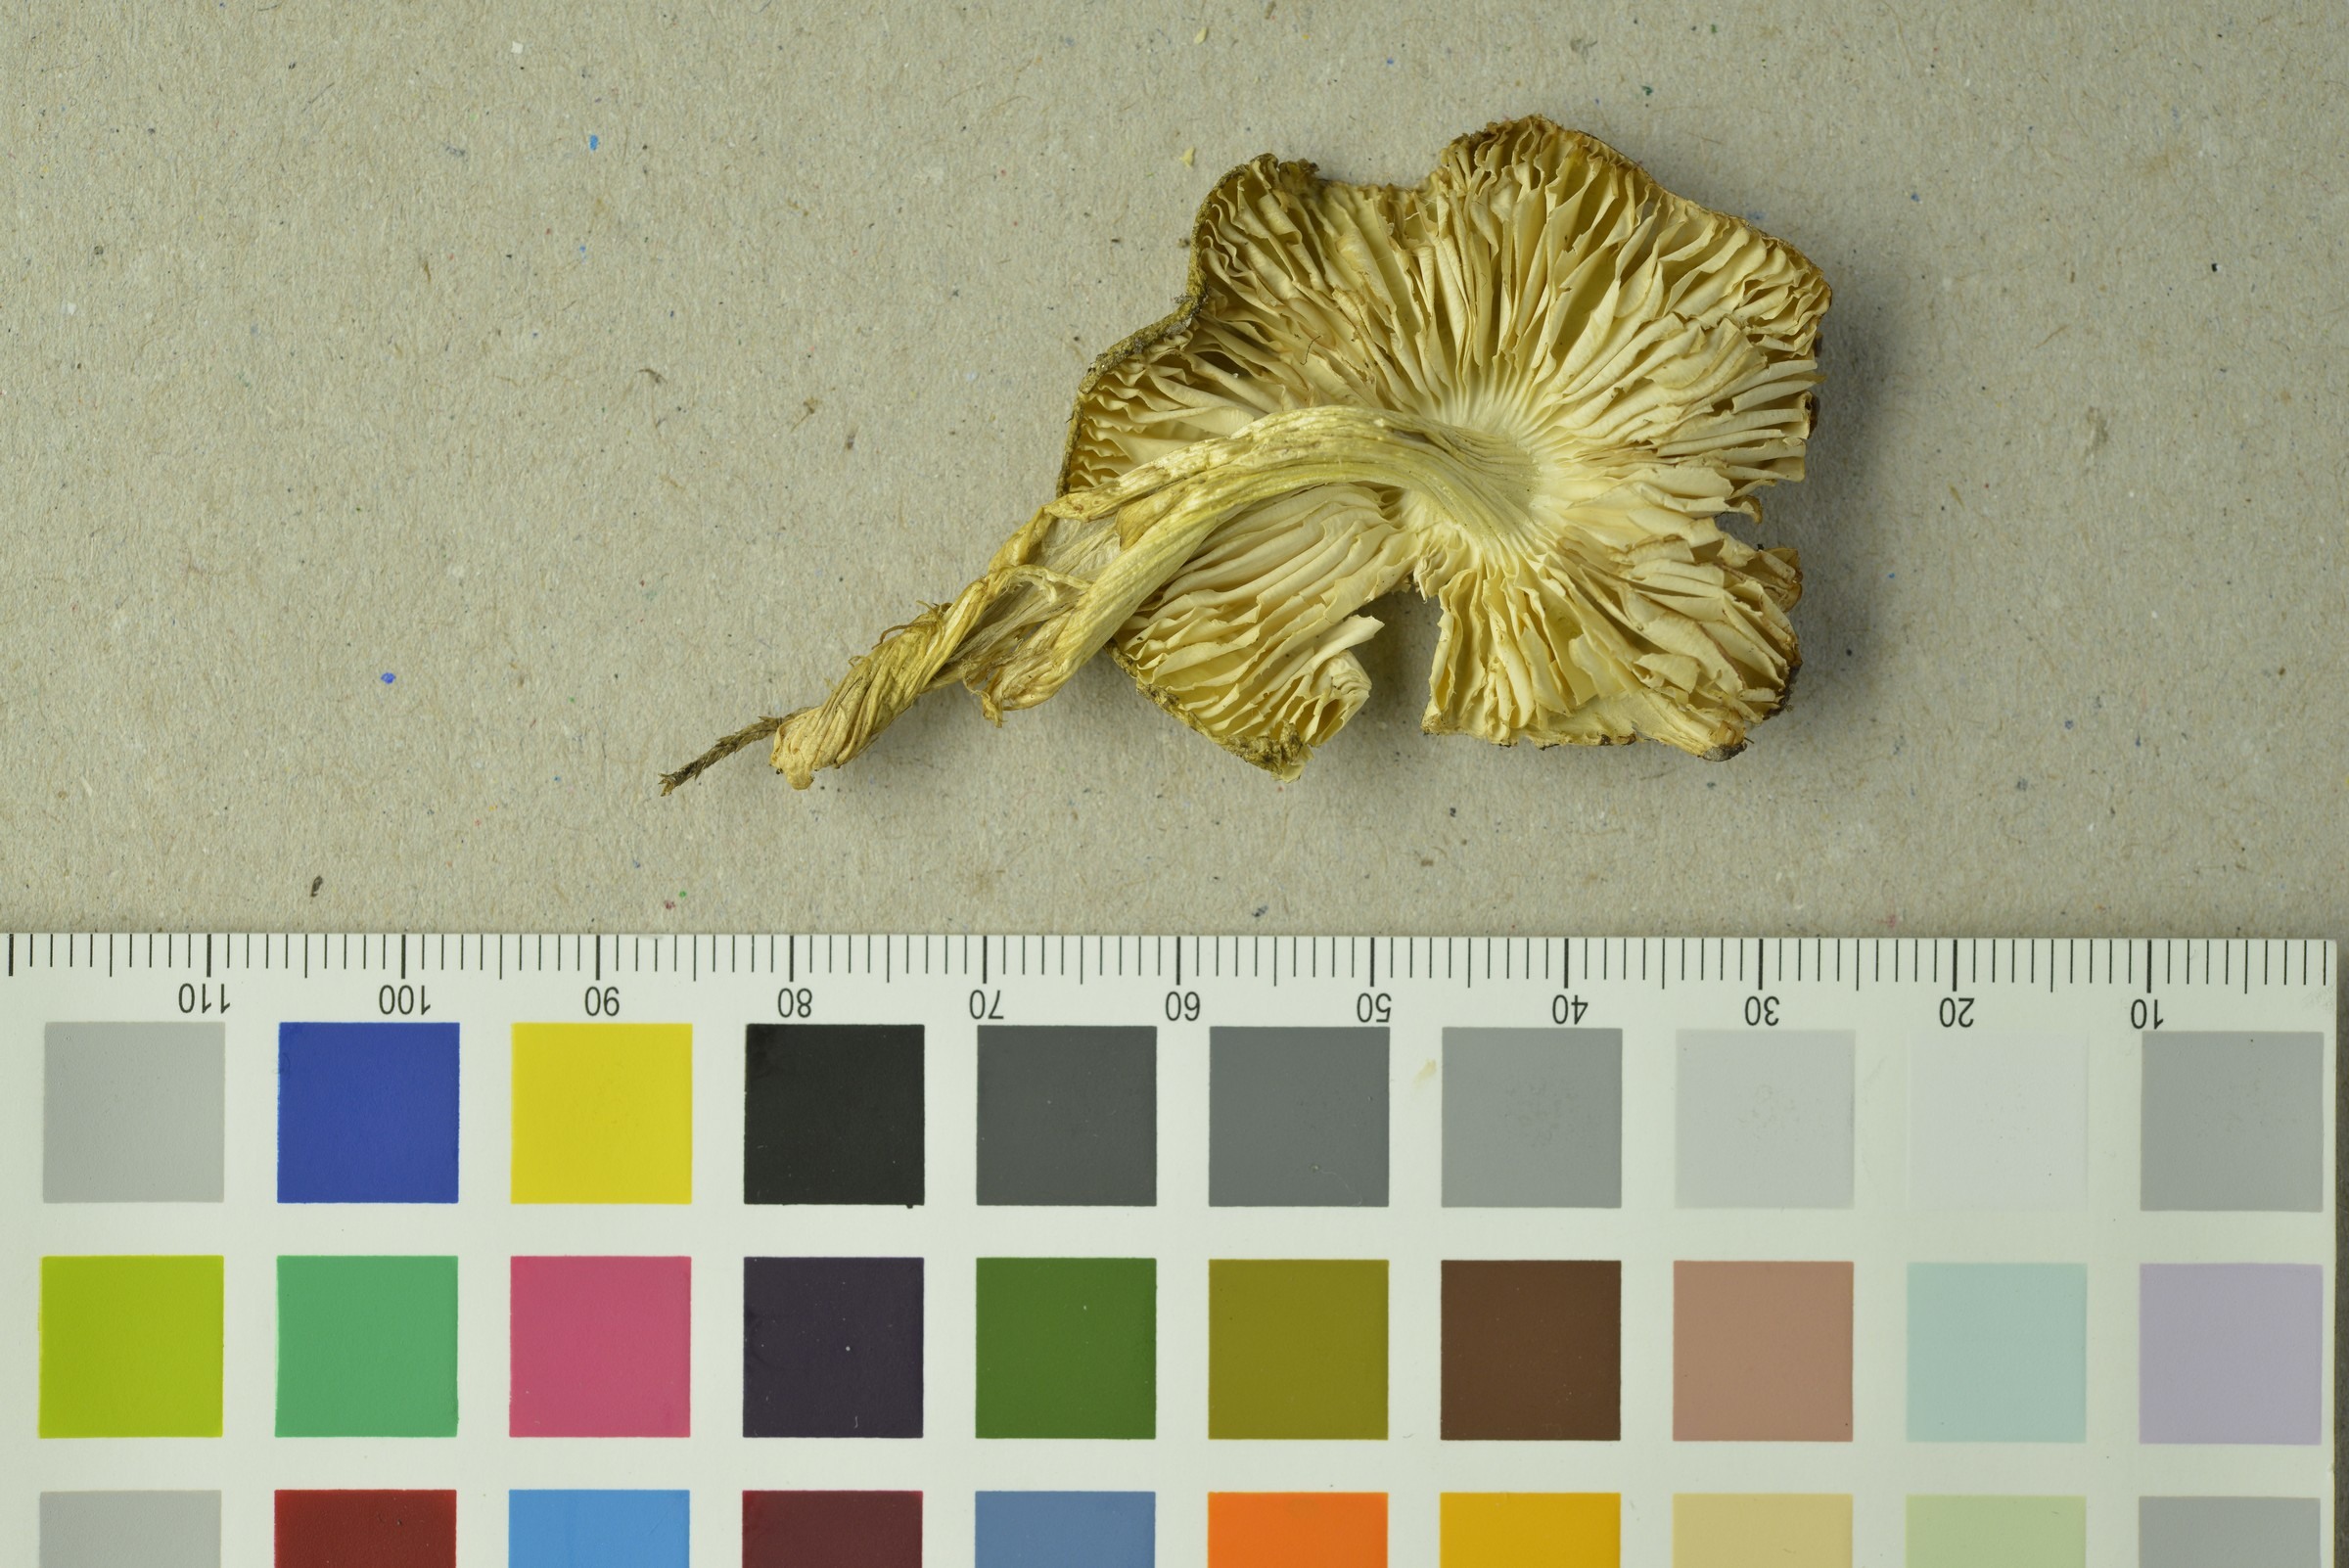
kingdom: Fungi
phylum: Basidiomycota
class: Agaricomycetes
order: Agaricales
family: Tricholomataceae
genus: Tricholoma
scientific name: Tricholoma viridilutescens
